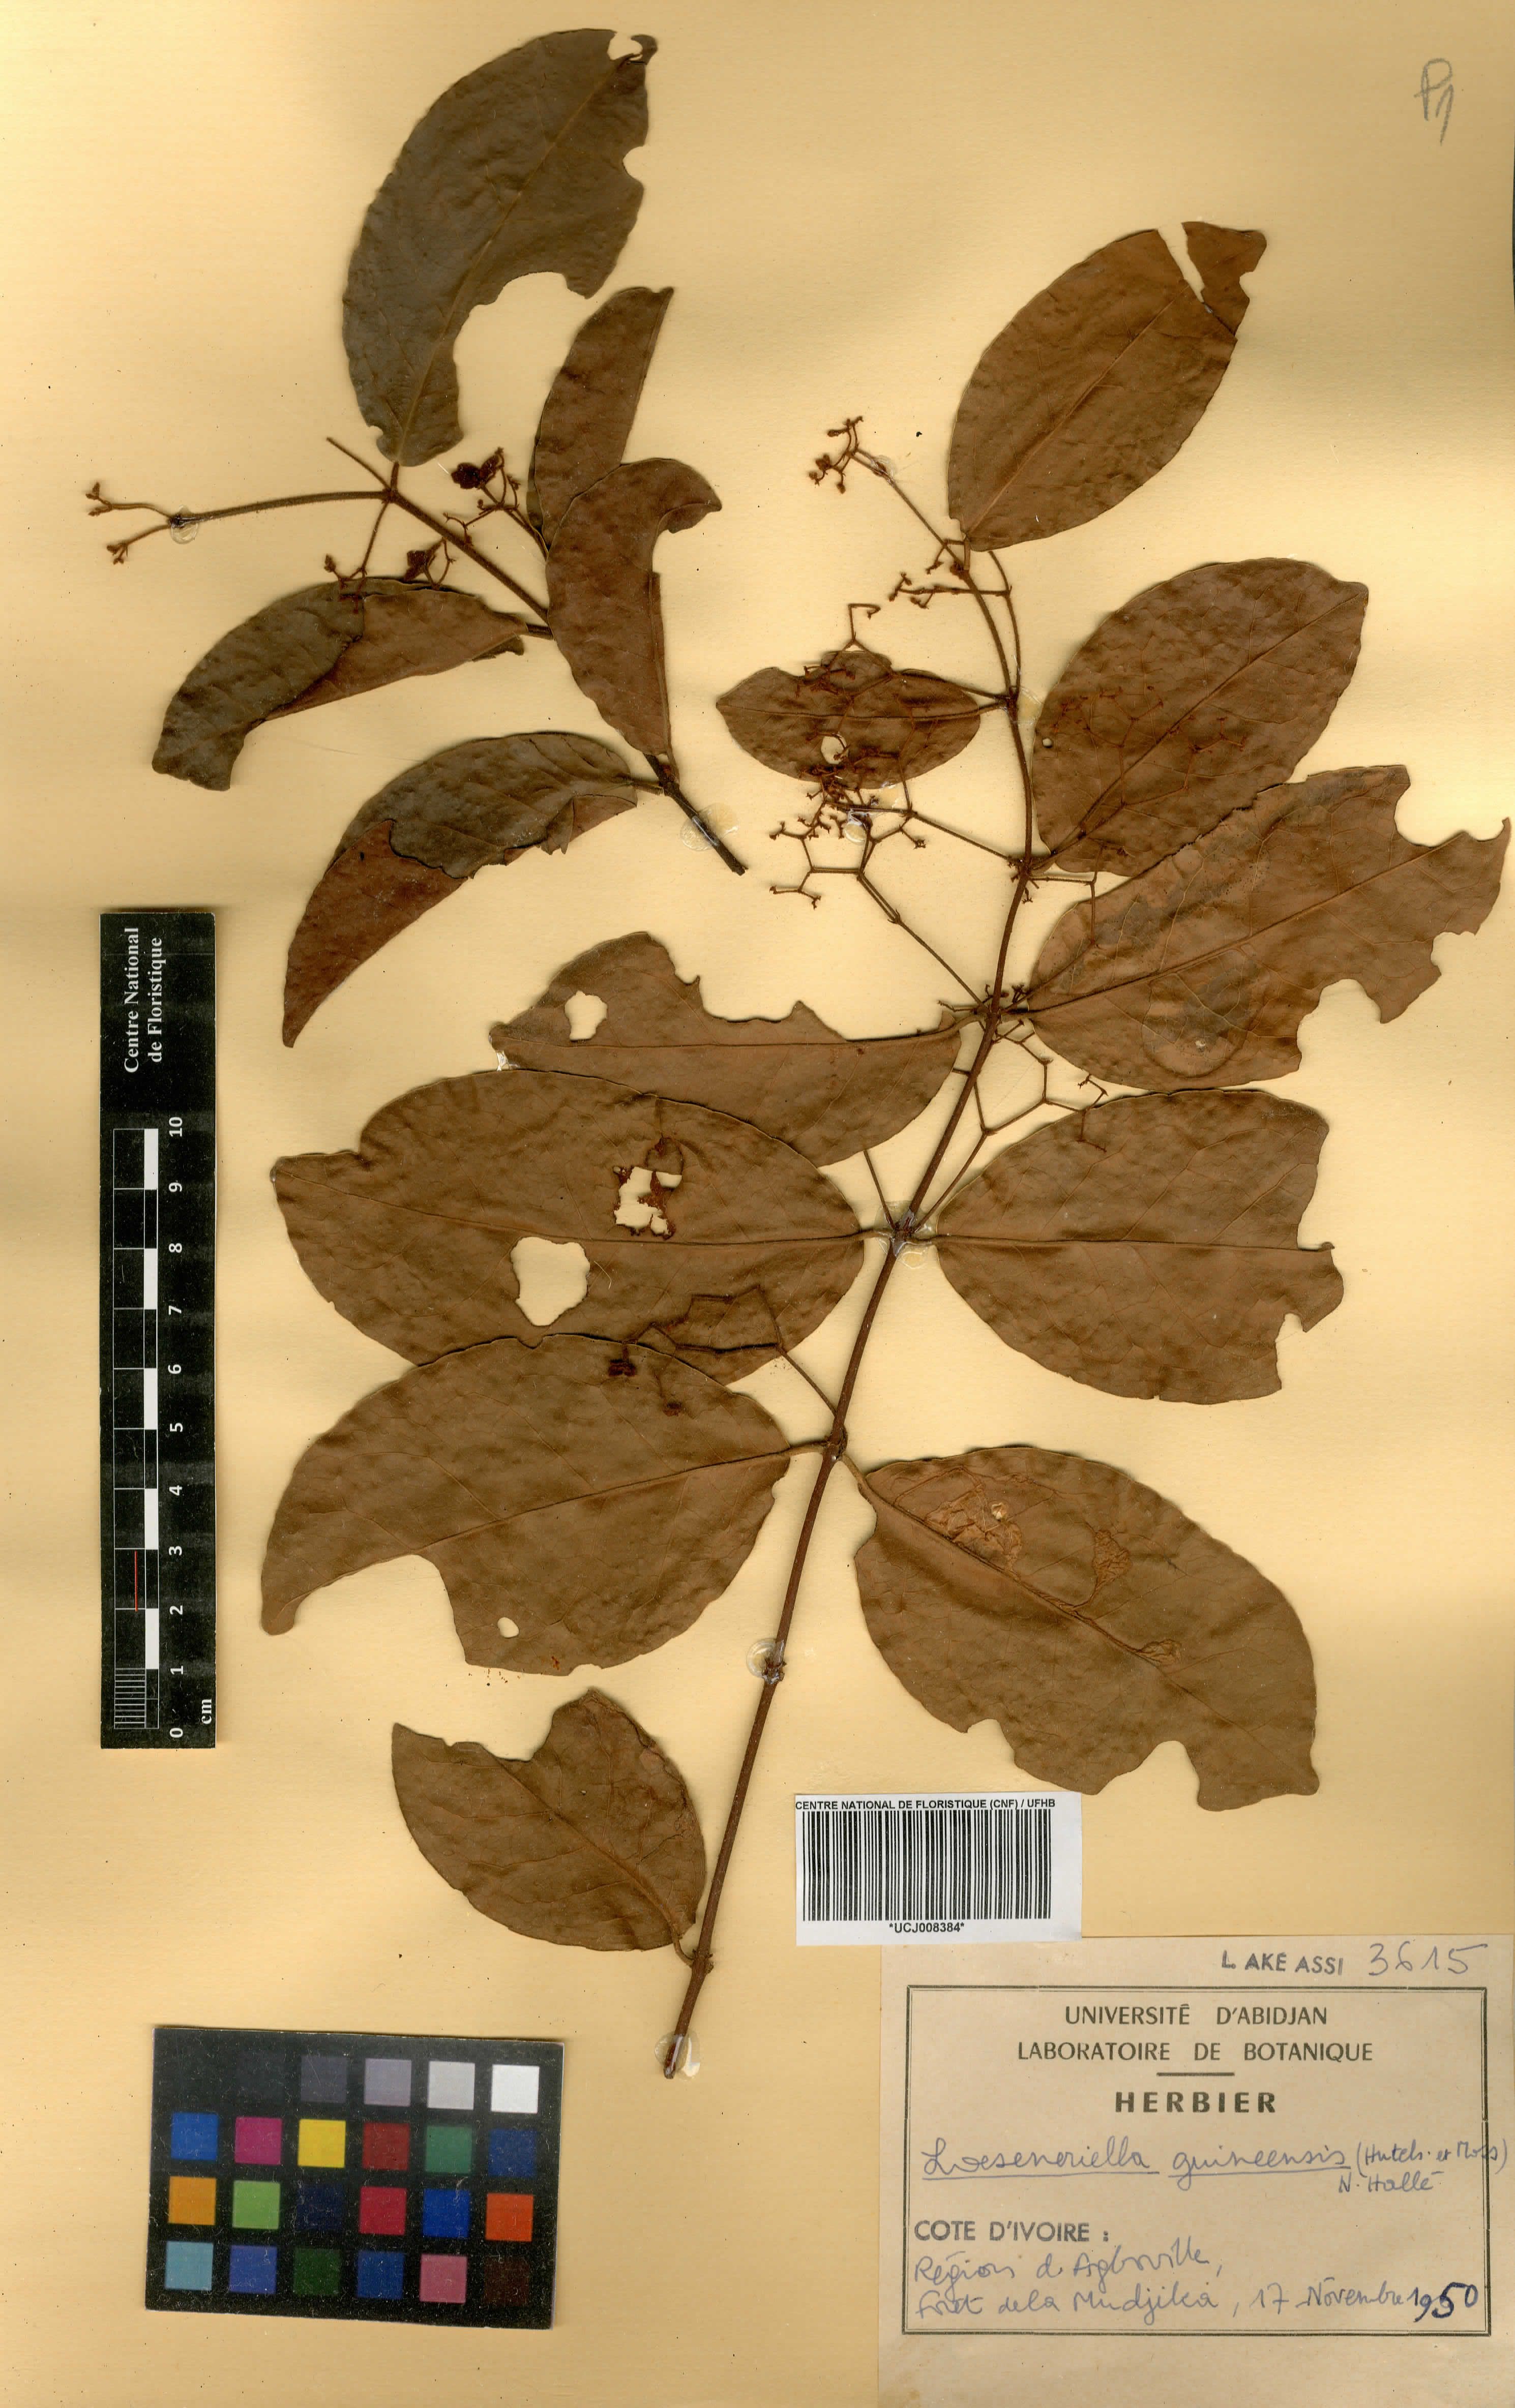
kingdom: Plantae
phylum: Tracheophyta
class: Magnoliopsida
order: Celastrales
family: Celastraceae
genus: Loeseneriella
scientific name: Loeseneriella ectypopetala
